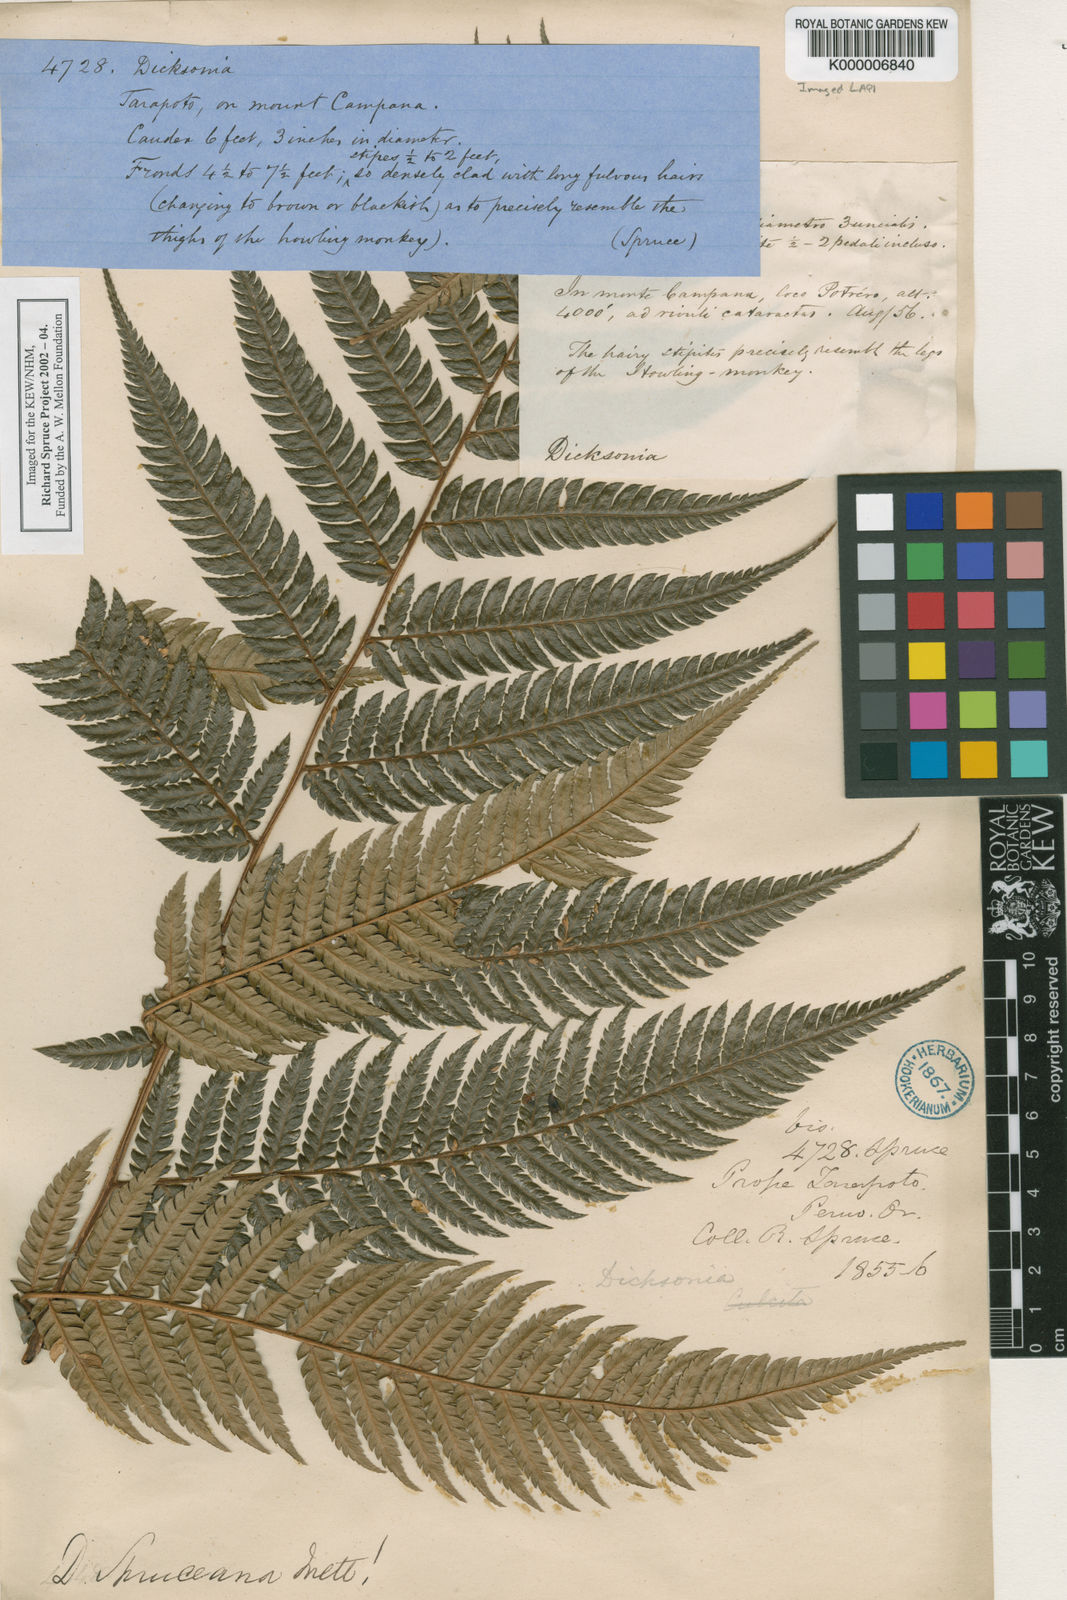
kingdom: Plantae
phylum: Tracheophyta
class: Polypodiopsida
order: Cyatheales
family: Dicksoniaceae
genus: Dicksonia
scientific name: Dicksonia
